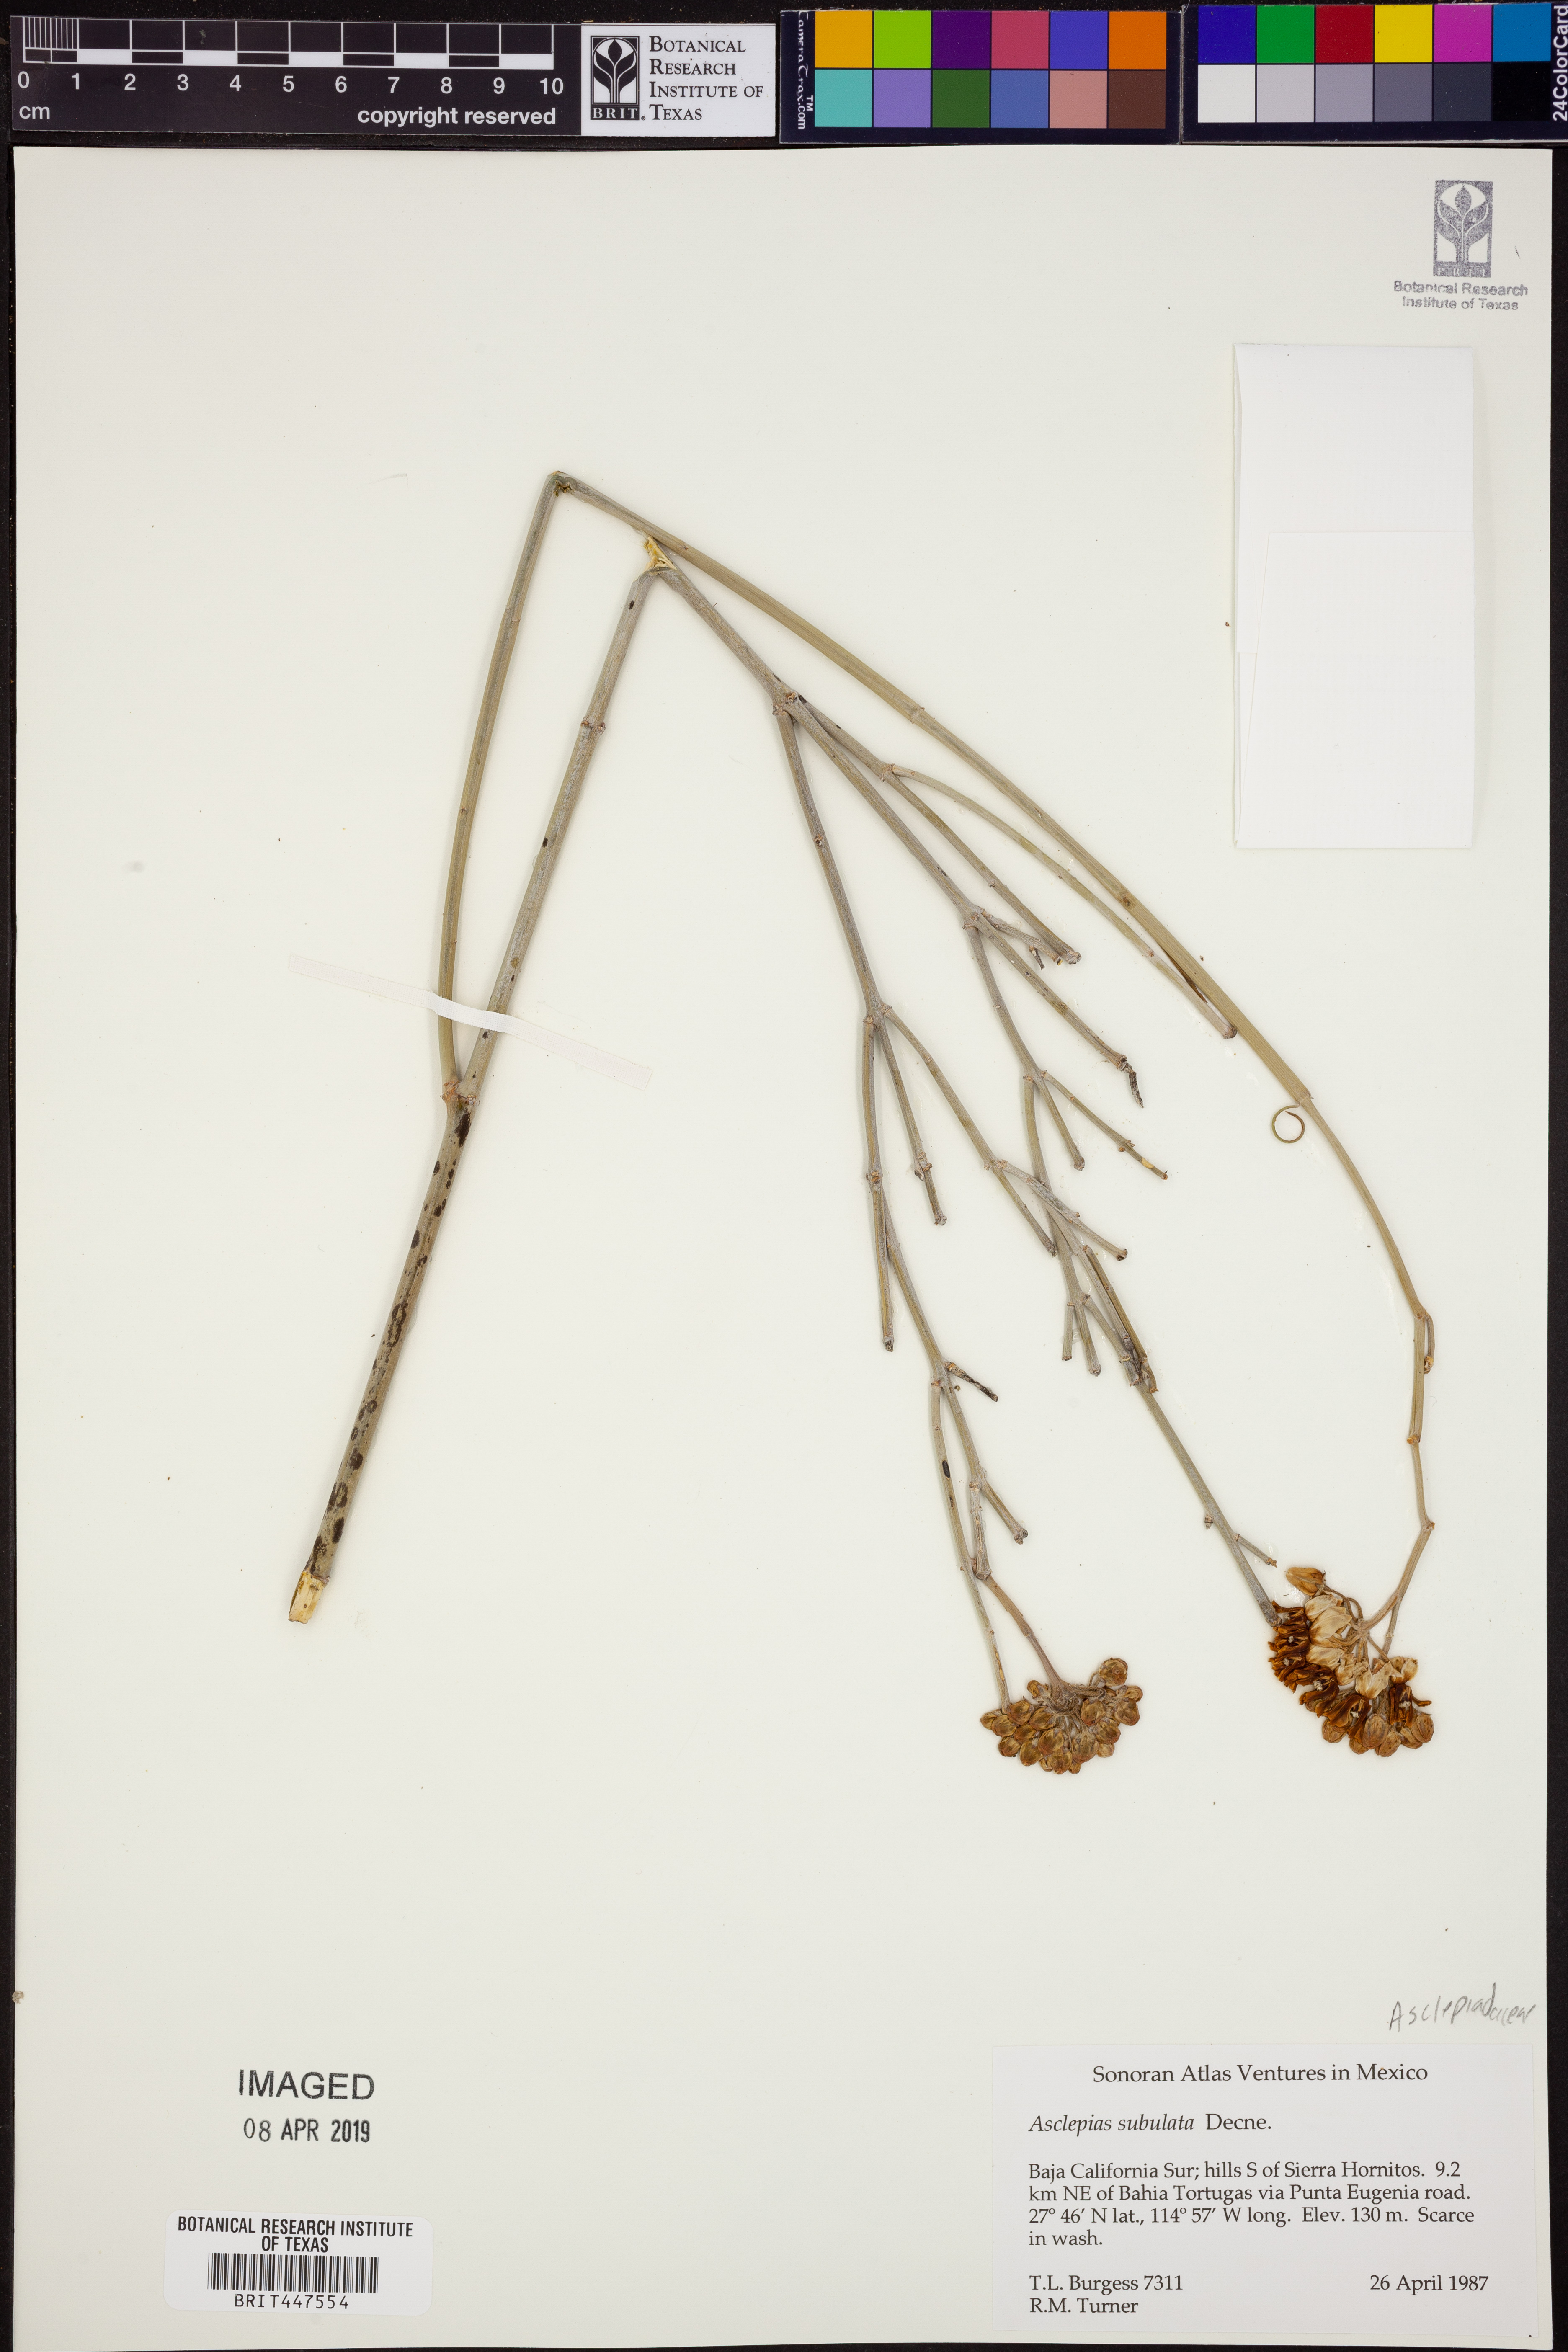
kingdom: Plantae
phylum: Tracheophyta
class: Magnoliopsida
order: Gentianales
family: Apocynaceae
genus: Asclepias
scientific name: Asclepias subulata
